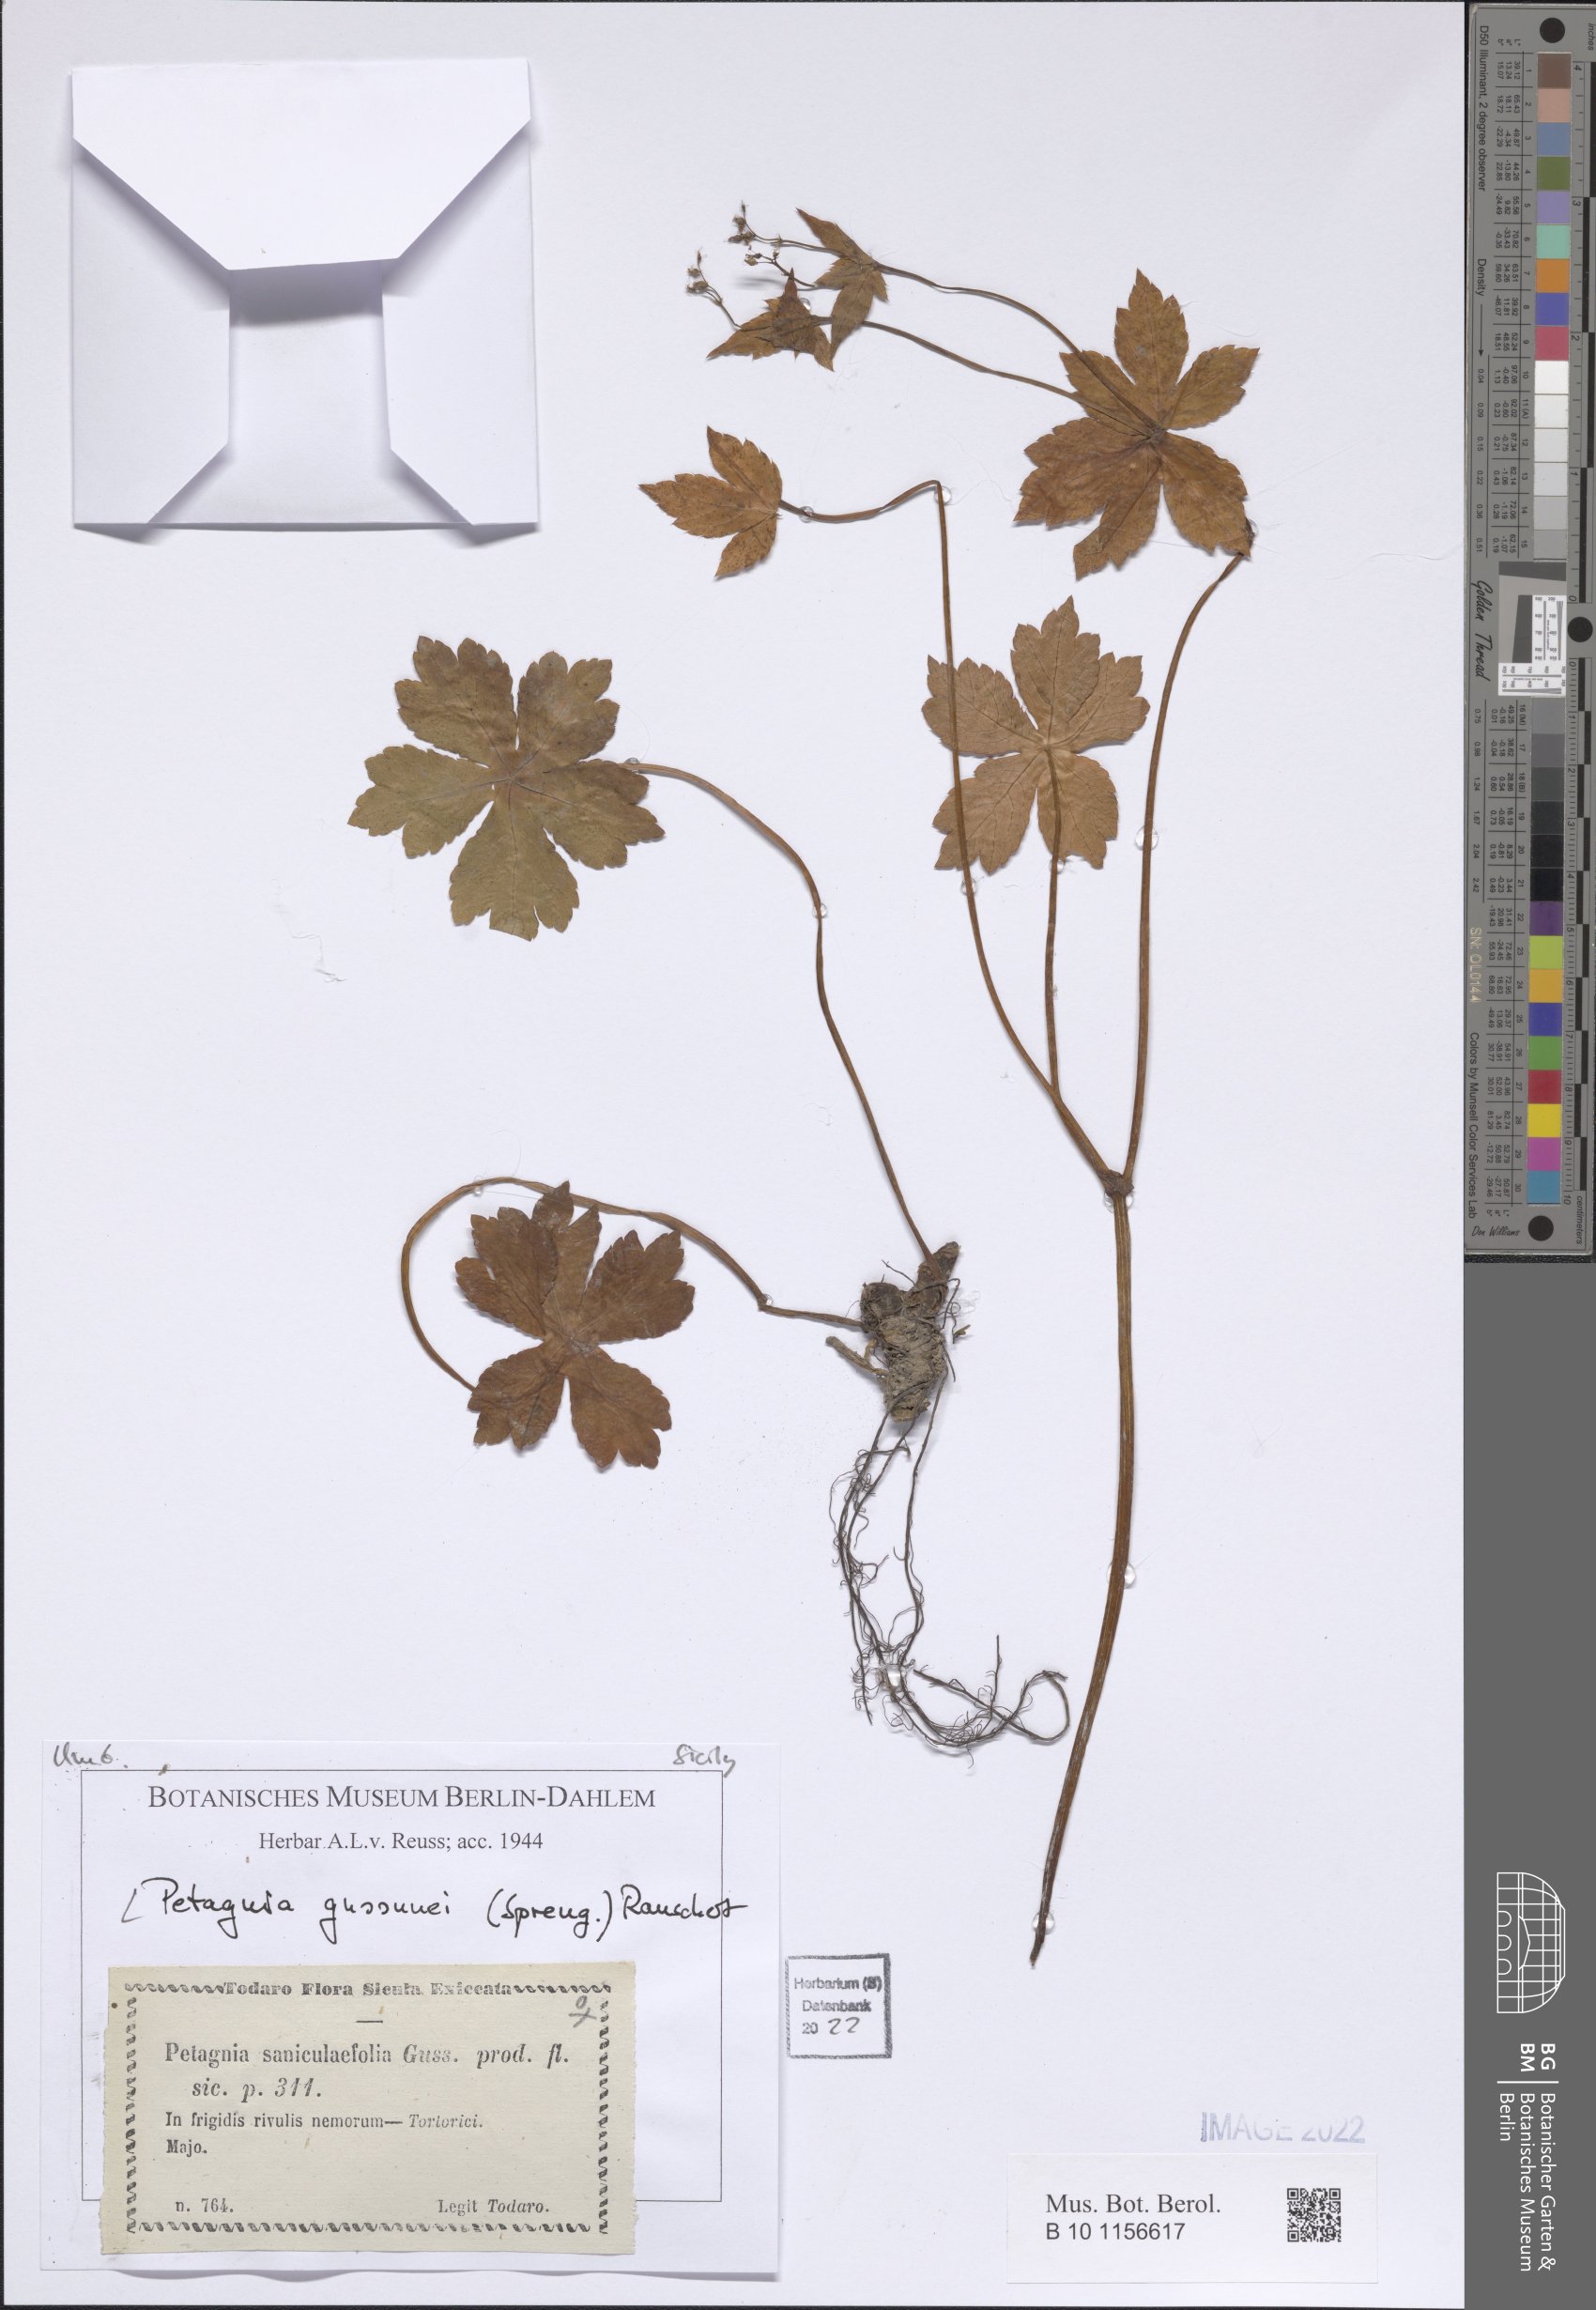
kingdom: Plantae
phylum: Tracheophyta
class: Magnoliopsida
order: Apiales
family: Apiaceae
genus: Petagnaea
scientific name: Petagnaea gussonei
